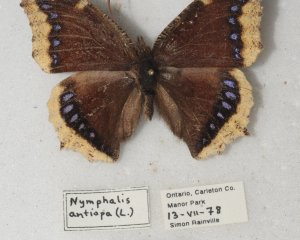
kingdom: Animalia
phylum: Arthropoda
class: Insecta
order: Lepidoptera
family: Nymphalidae
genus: Nymphalis
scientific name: Nymphalis antiopa
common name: Mourning Cloak
